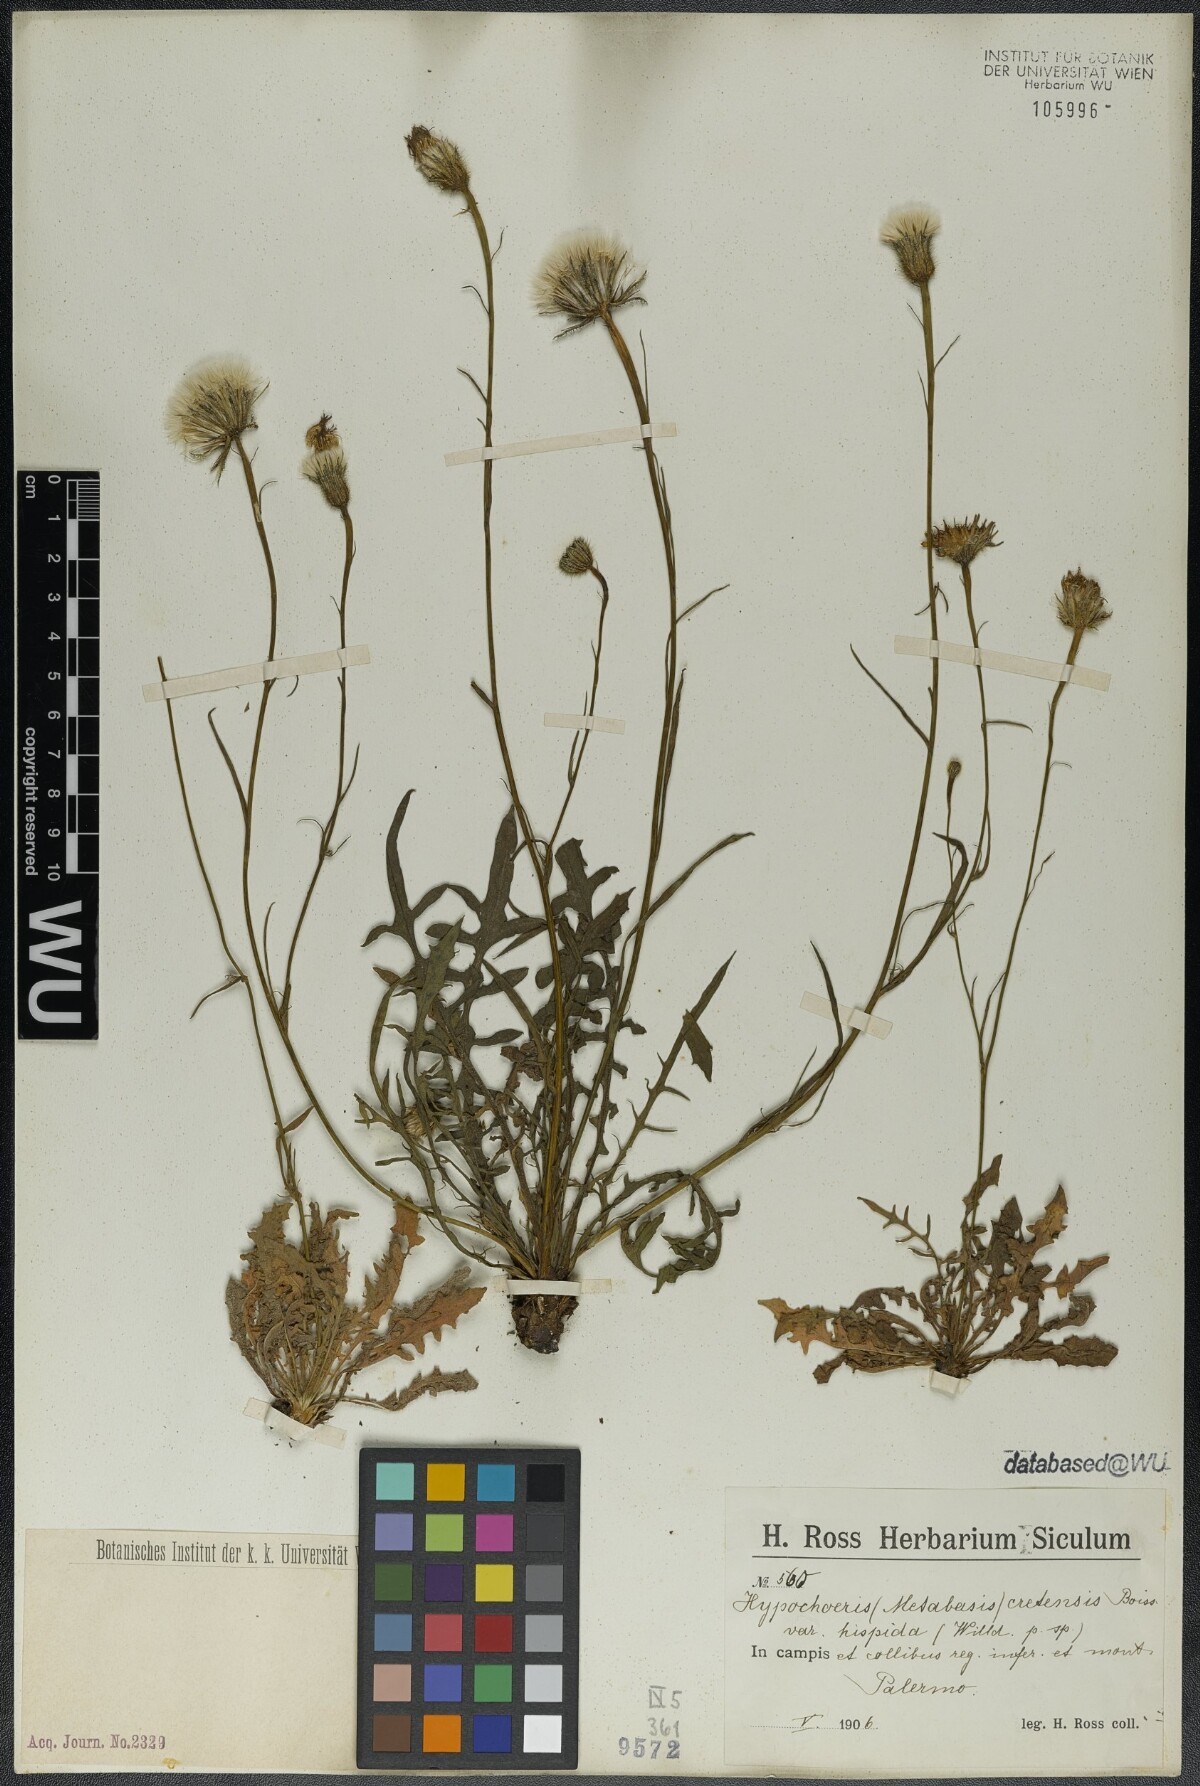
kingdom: Plantae
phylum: Tracheophyta
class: Magnoliopsida
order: Asterales
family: Asteraceae
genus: Hypochaeris
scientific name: Hypochaeris cretensis
